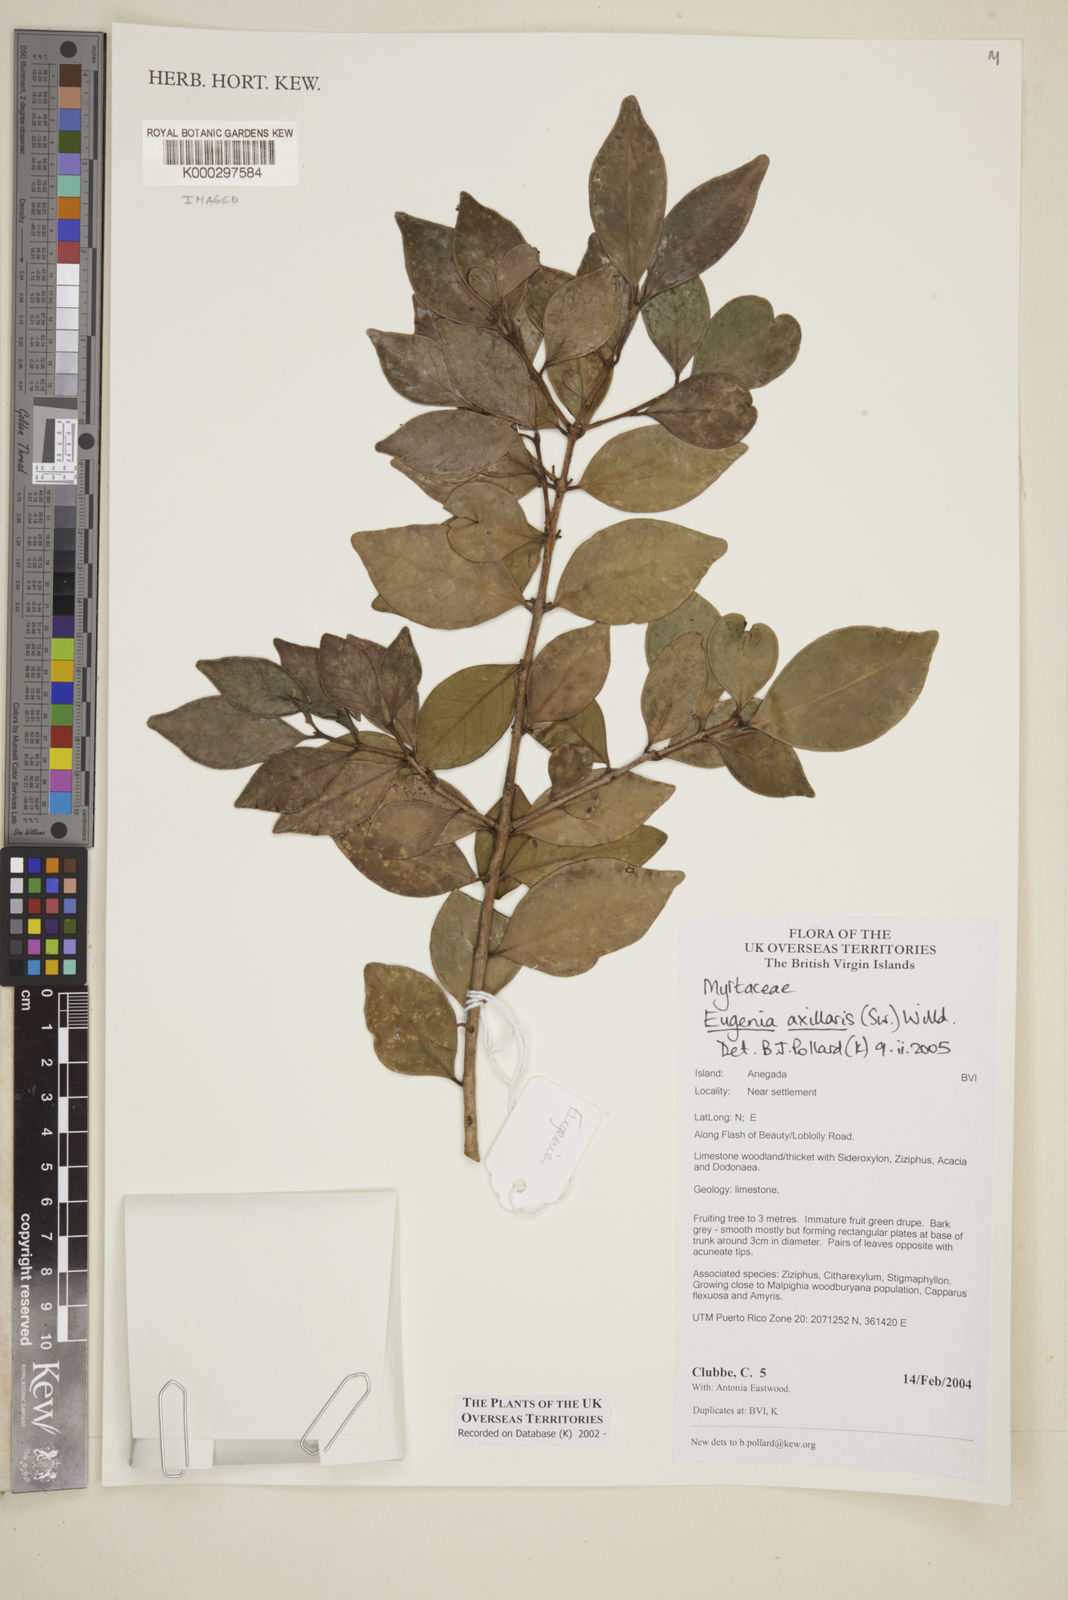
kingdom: Plantae
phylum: Tracheophyta
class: Magnoliopsida
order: Myrtales
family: Myrtaceae
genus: Eugenia
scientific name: Eugenia axillaris
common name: Choaky berry
